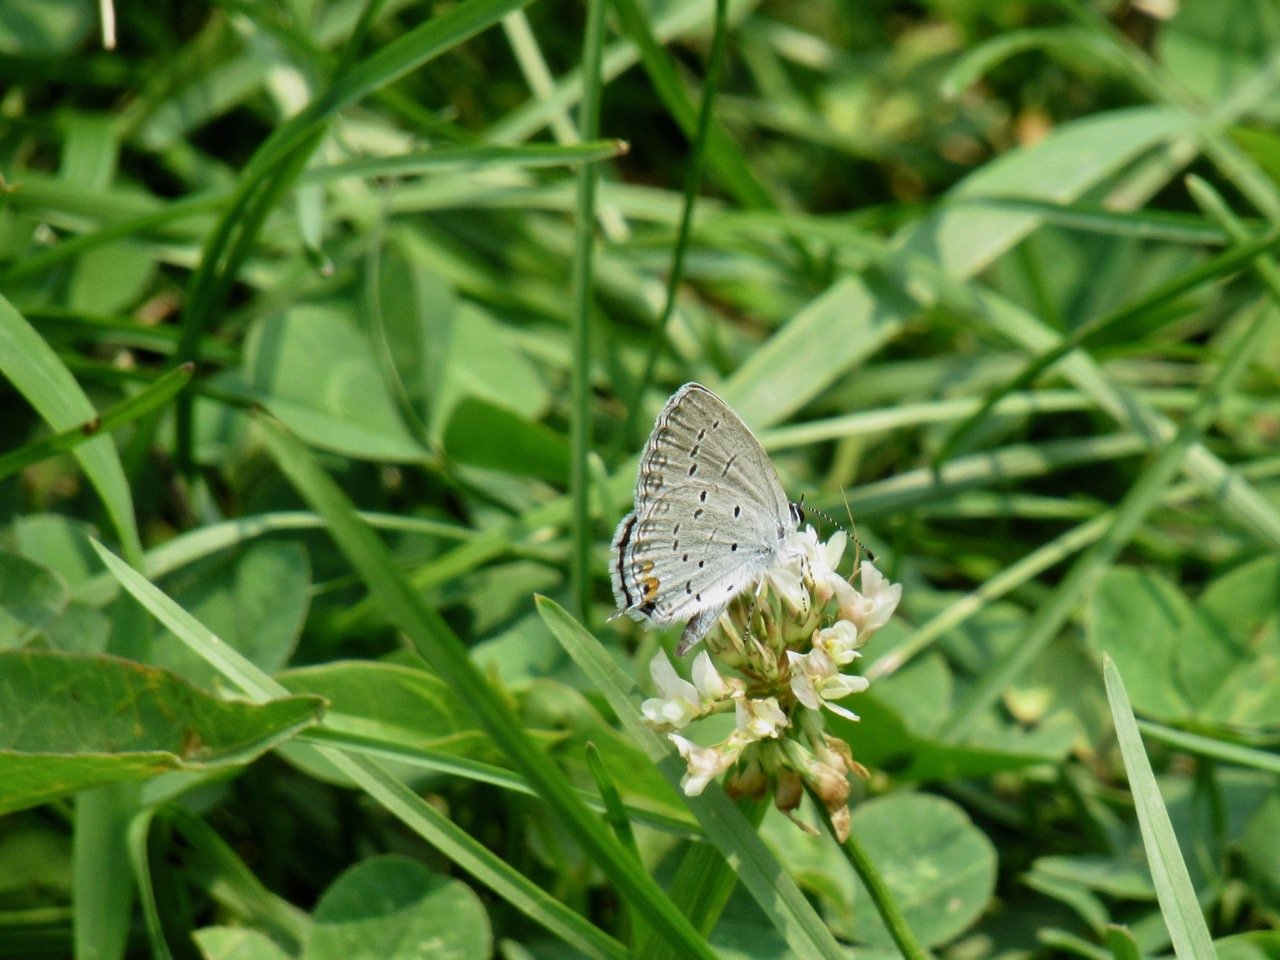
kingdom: Animalia
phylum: Arthropoda
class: Insecta
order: Lepidoptera
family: Lycaenidae
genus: Elkalyce
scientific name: Elkalyce comyntas
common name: Eastern Tailed-Blue
